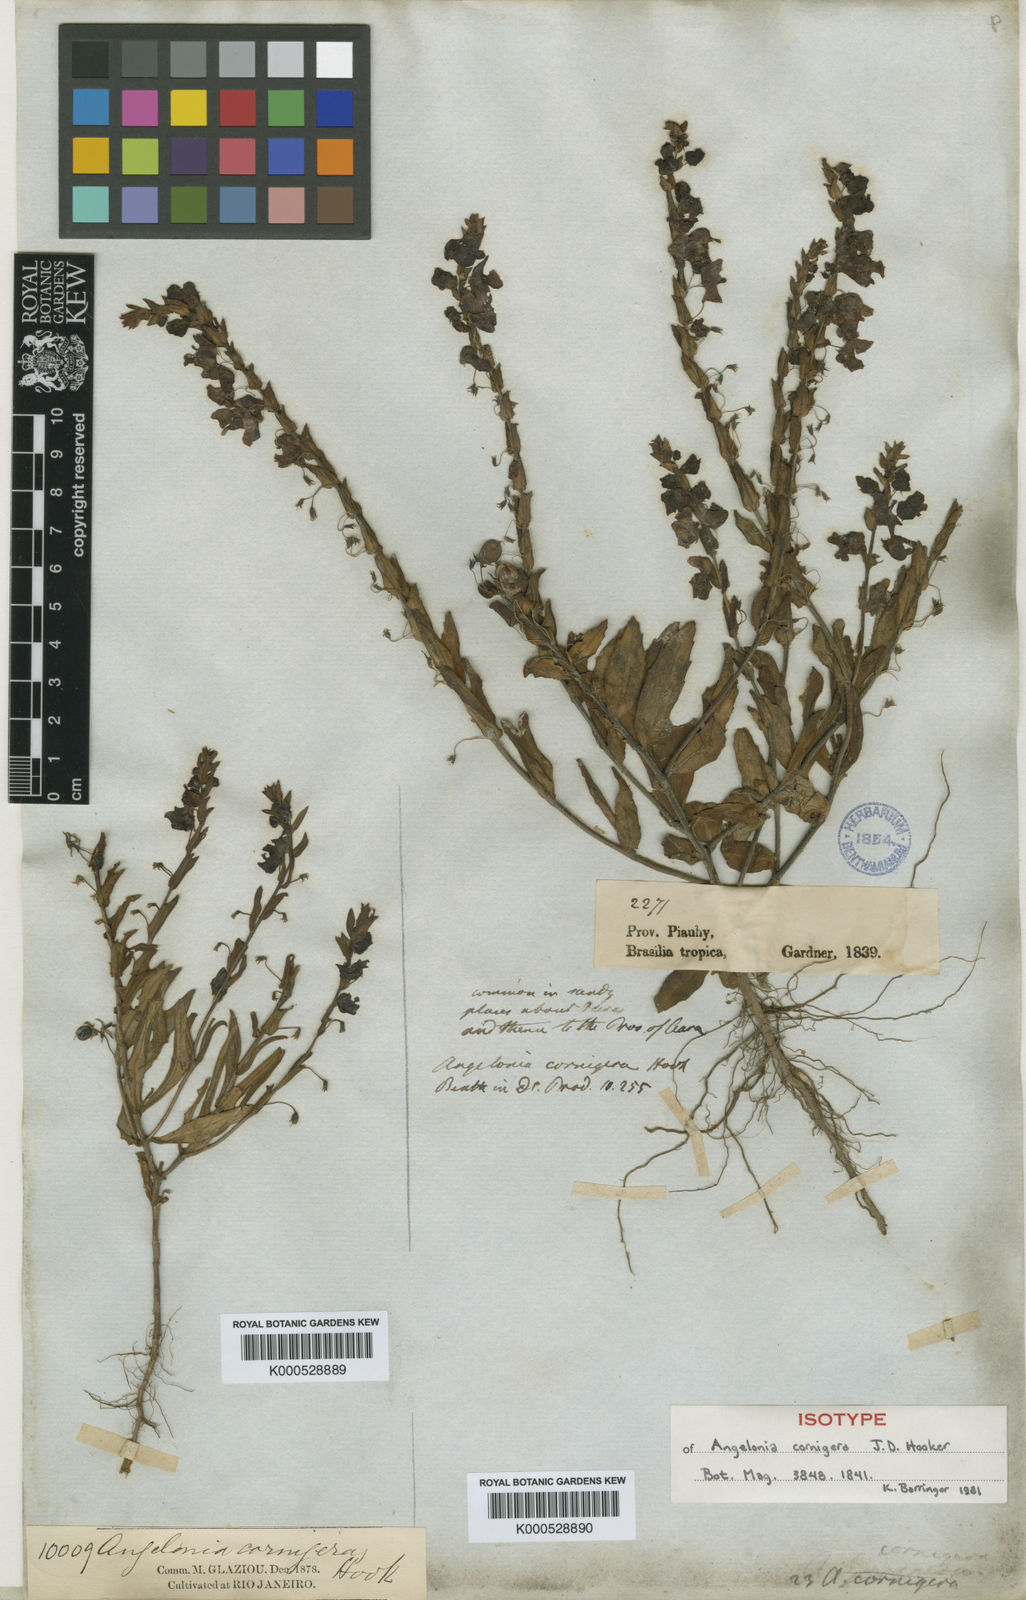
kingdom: Plantae
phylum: Tracheophyta
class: Magnoliopsida
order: Lamiales
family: Plantaginaceae
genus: Angelonia
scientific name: Angelonia cornigera
